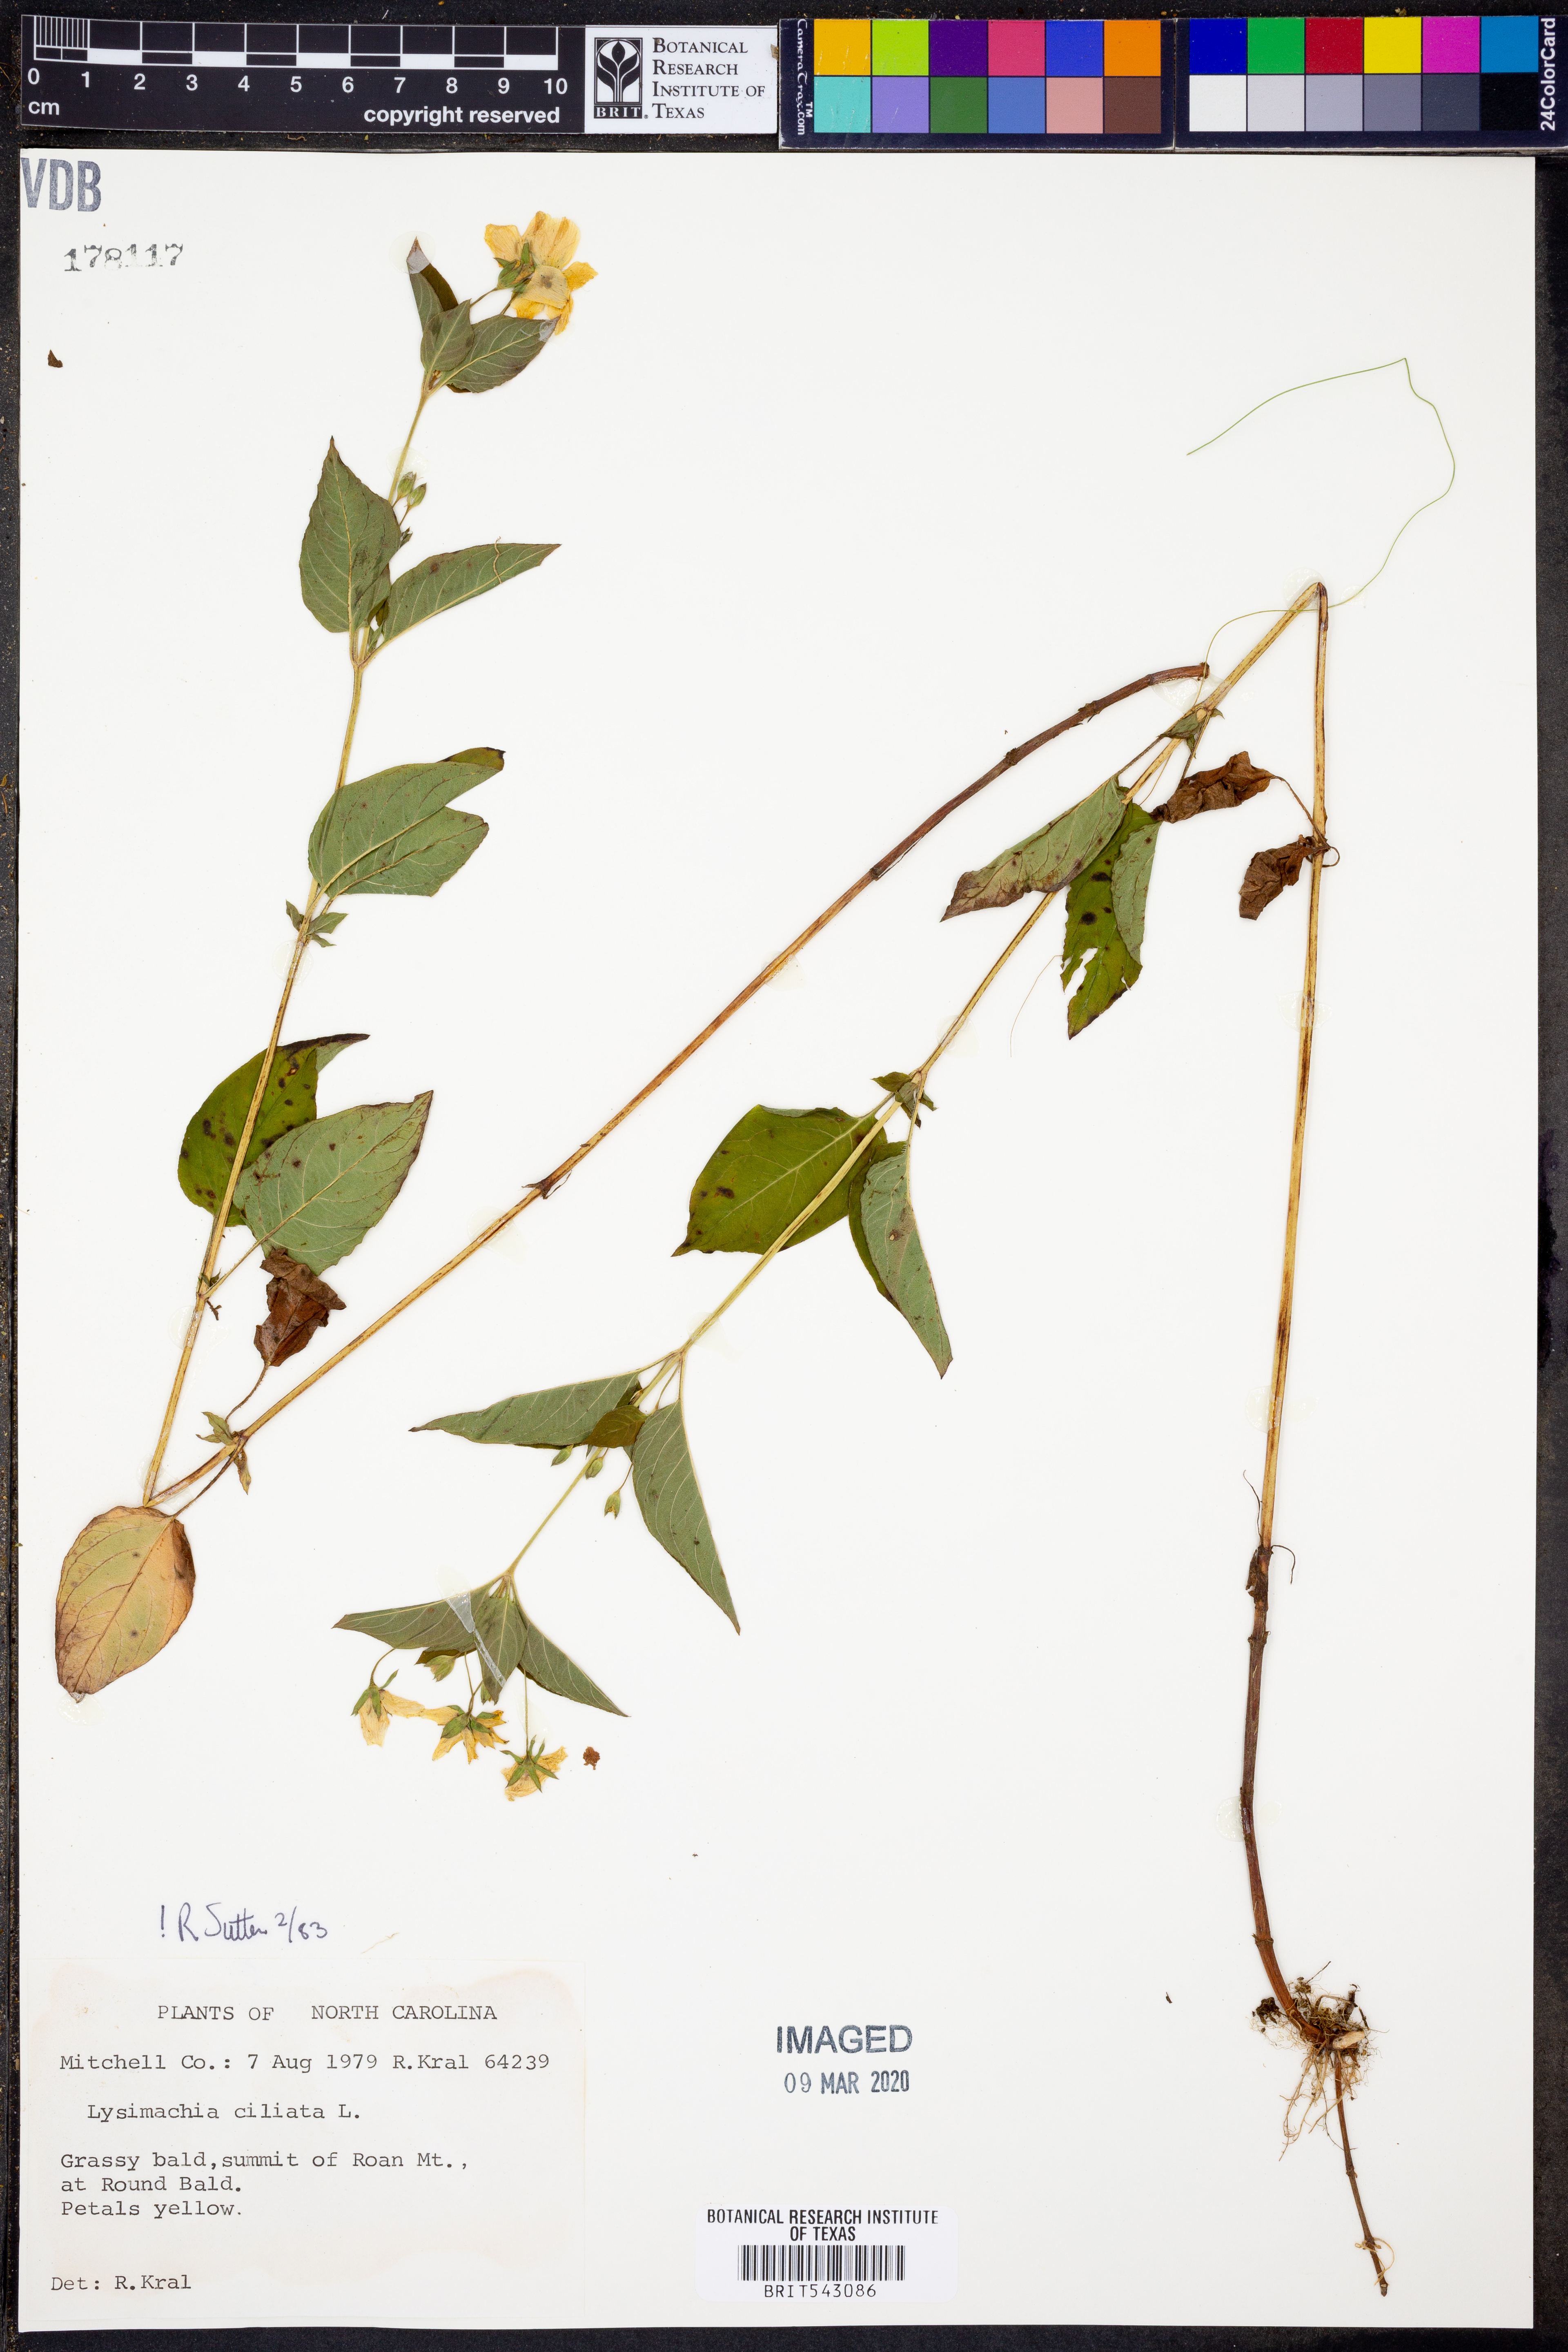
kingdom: Plantae
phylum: Tracheophyta
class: Magnoliopsida
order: Ericales
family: Primulaceae
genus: Lysimachia
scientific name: Lysimachia ciliata
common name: Fringed loosestrife
